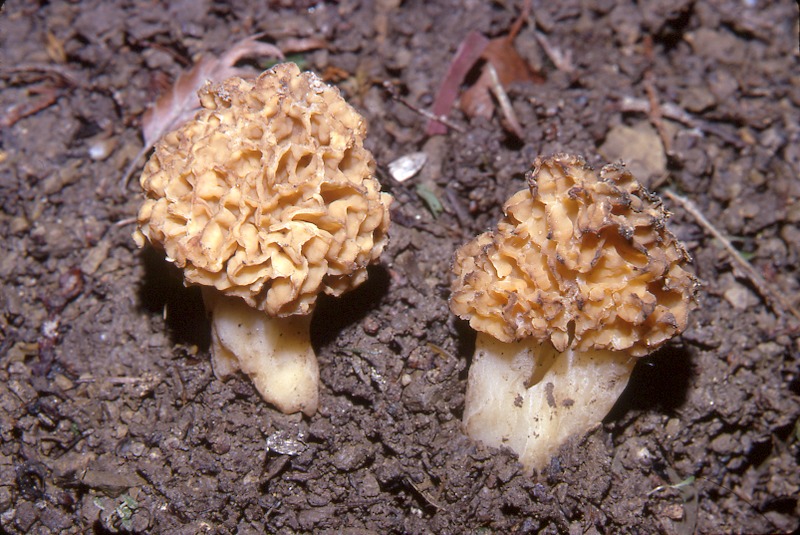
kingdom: Fungi
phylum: Ascomycota
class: Pezizomycetes
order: Pezizales
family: Morchellaceae
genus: Morchella
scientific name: Morchella esculenta
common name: Morel
